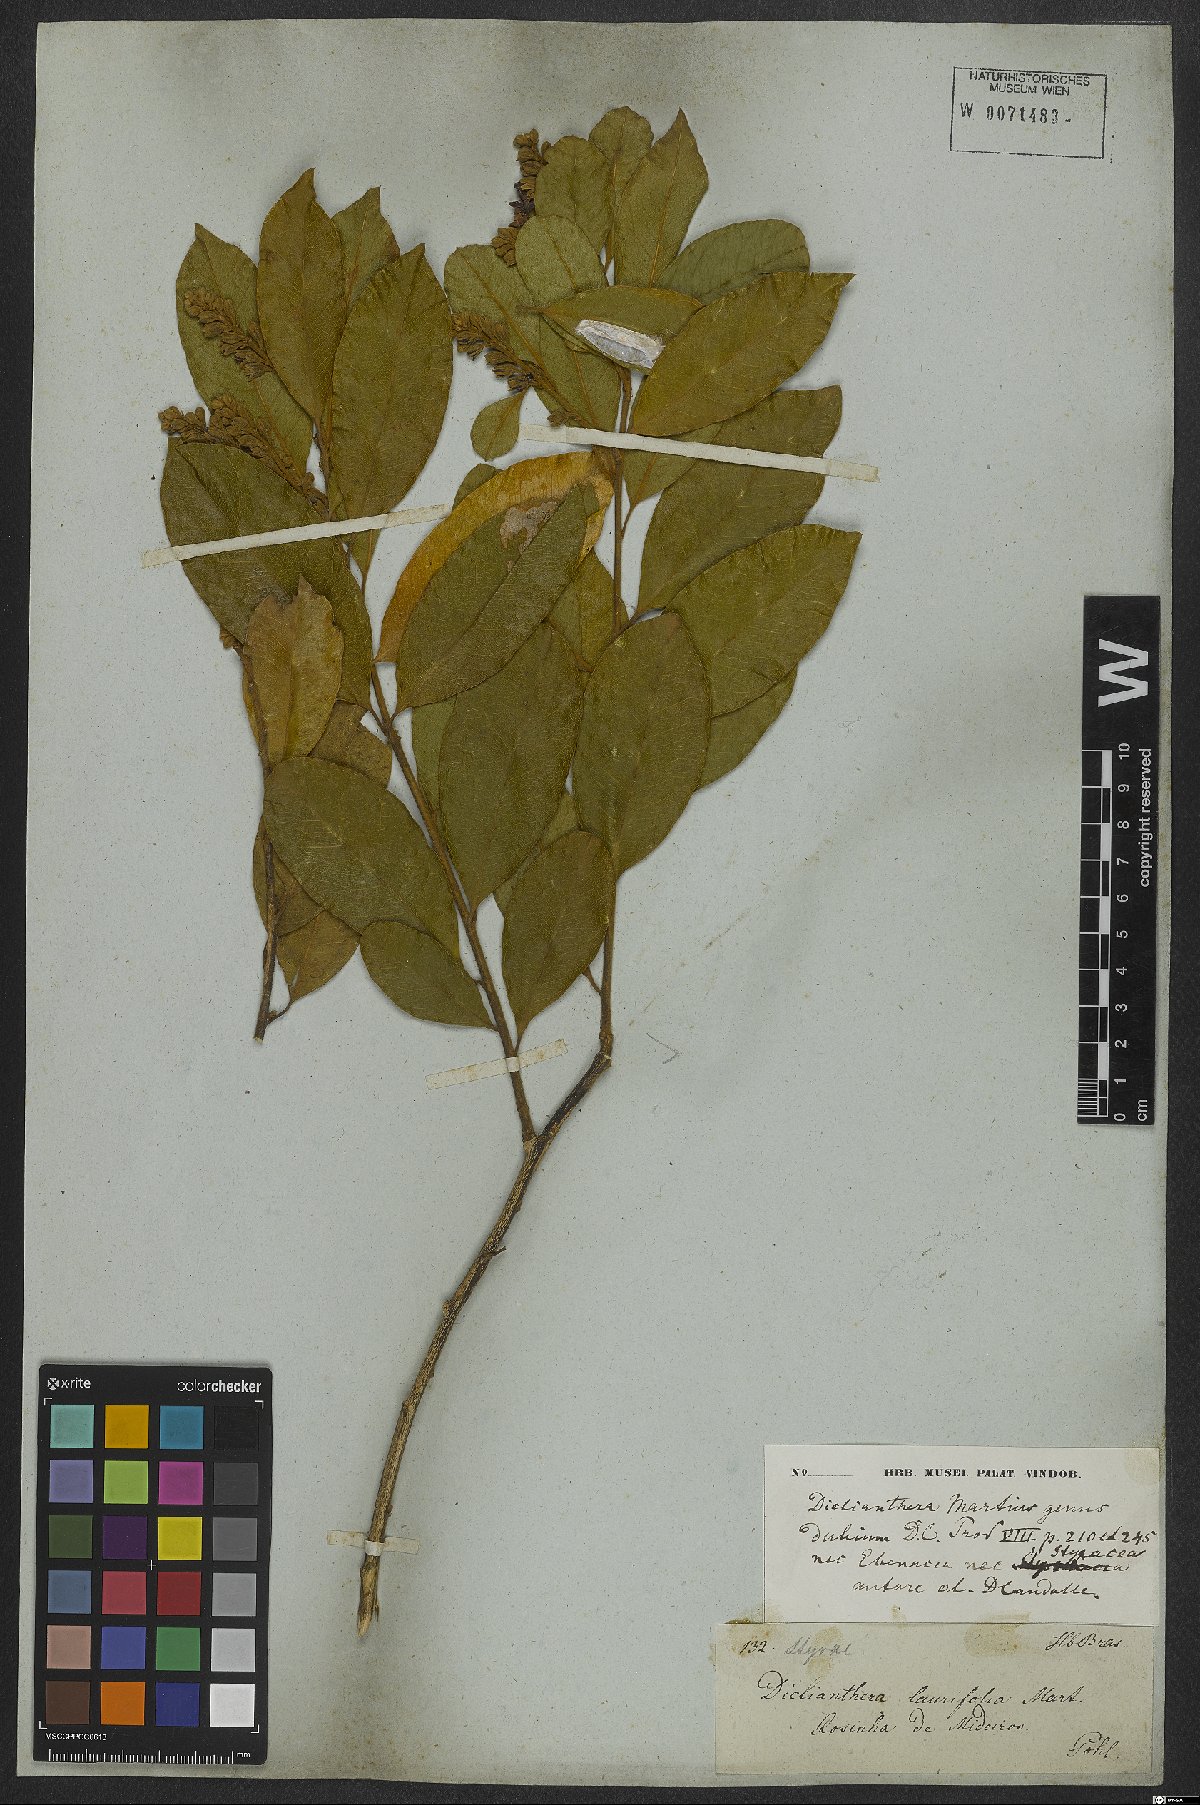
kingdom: Plantae
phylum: Tracheophyta
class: Magnoliopsida
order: Fabales
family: Polygalaceae
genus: Diclidanthera
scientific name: Diclidanthera laurifolia
